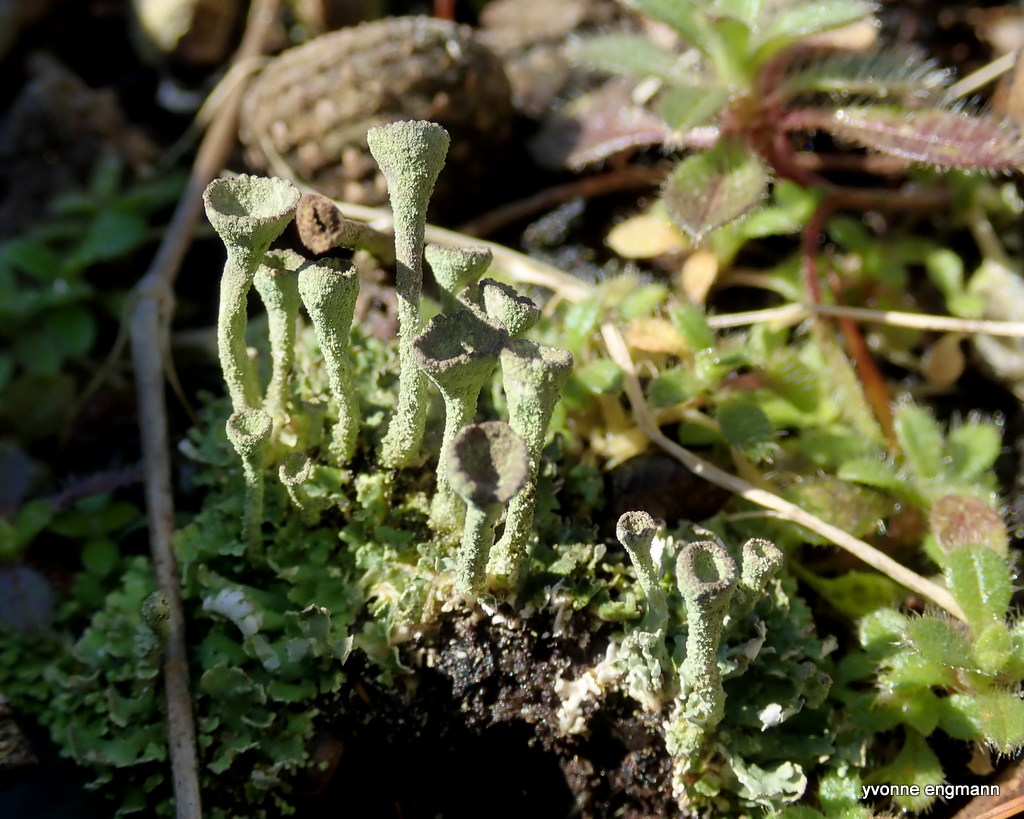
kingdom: Fungi
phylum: Ascomycota
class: Lecanoromycetes
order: Lecanorales
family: Cladoniaceae
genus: Cladonia
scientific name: Cladonia
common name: brungrøn bægerlav
